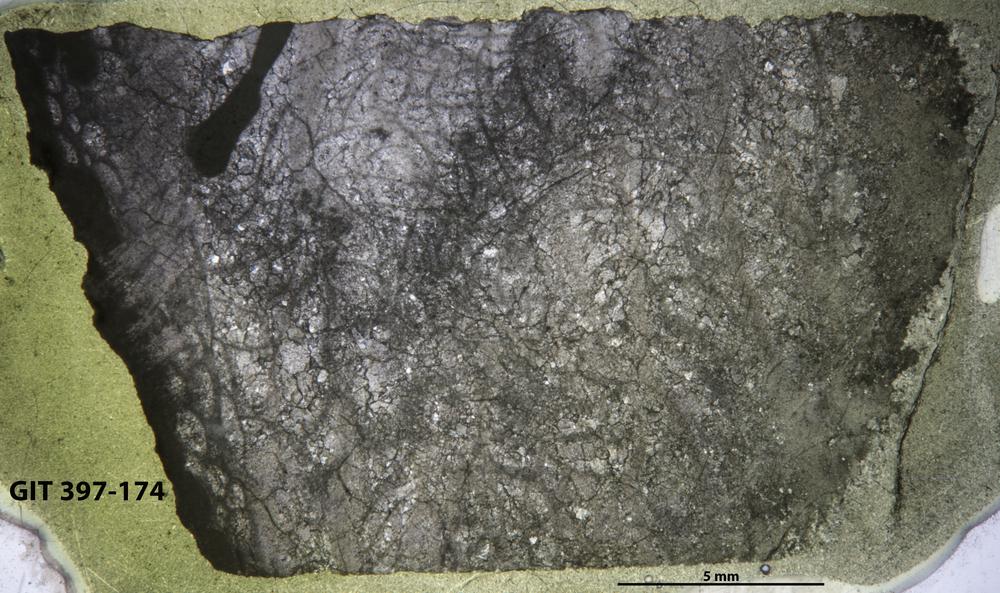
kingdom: Animalia
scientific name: Animalia
